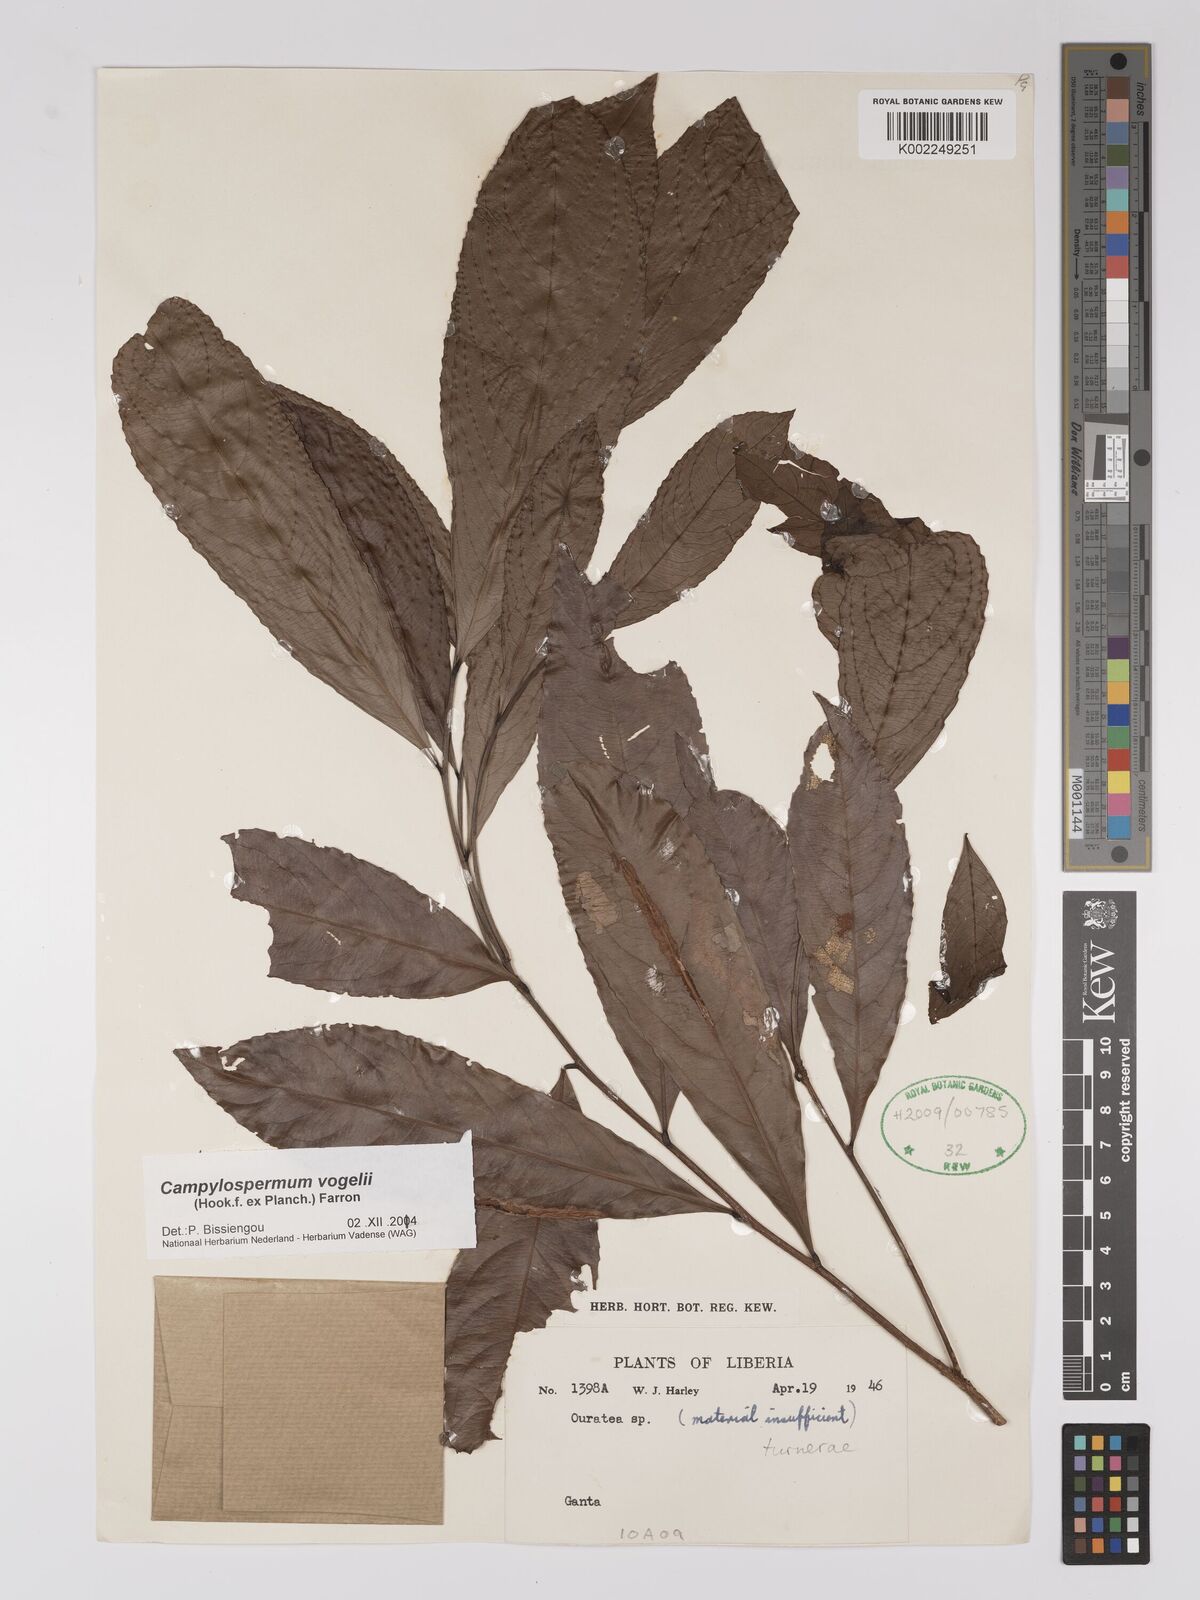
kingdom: Plantae
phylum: Tracheophyta
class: Magnoliopsida
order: Malpighiales
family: Ochnaceae
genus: Campylospermum
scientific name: Campylospermum vogelii
